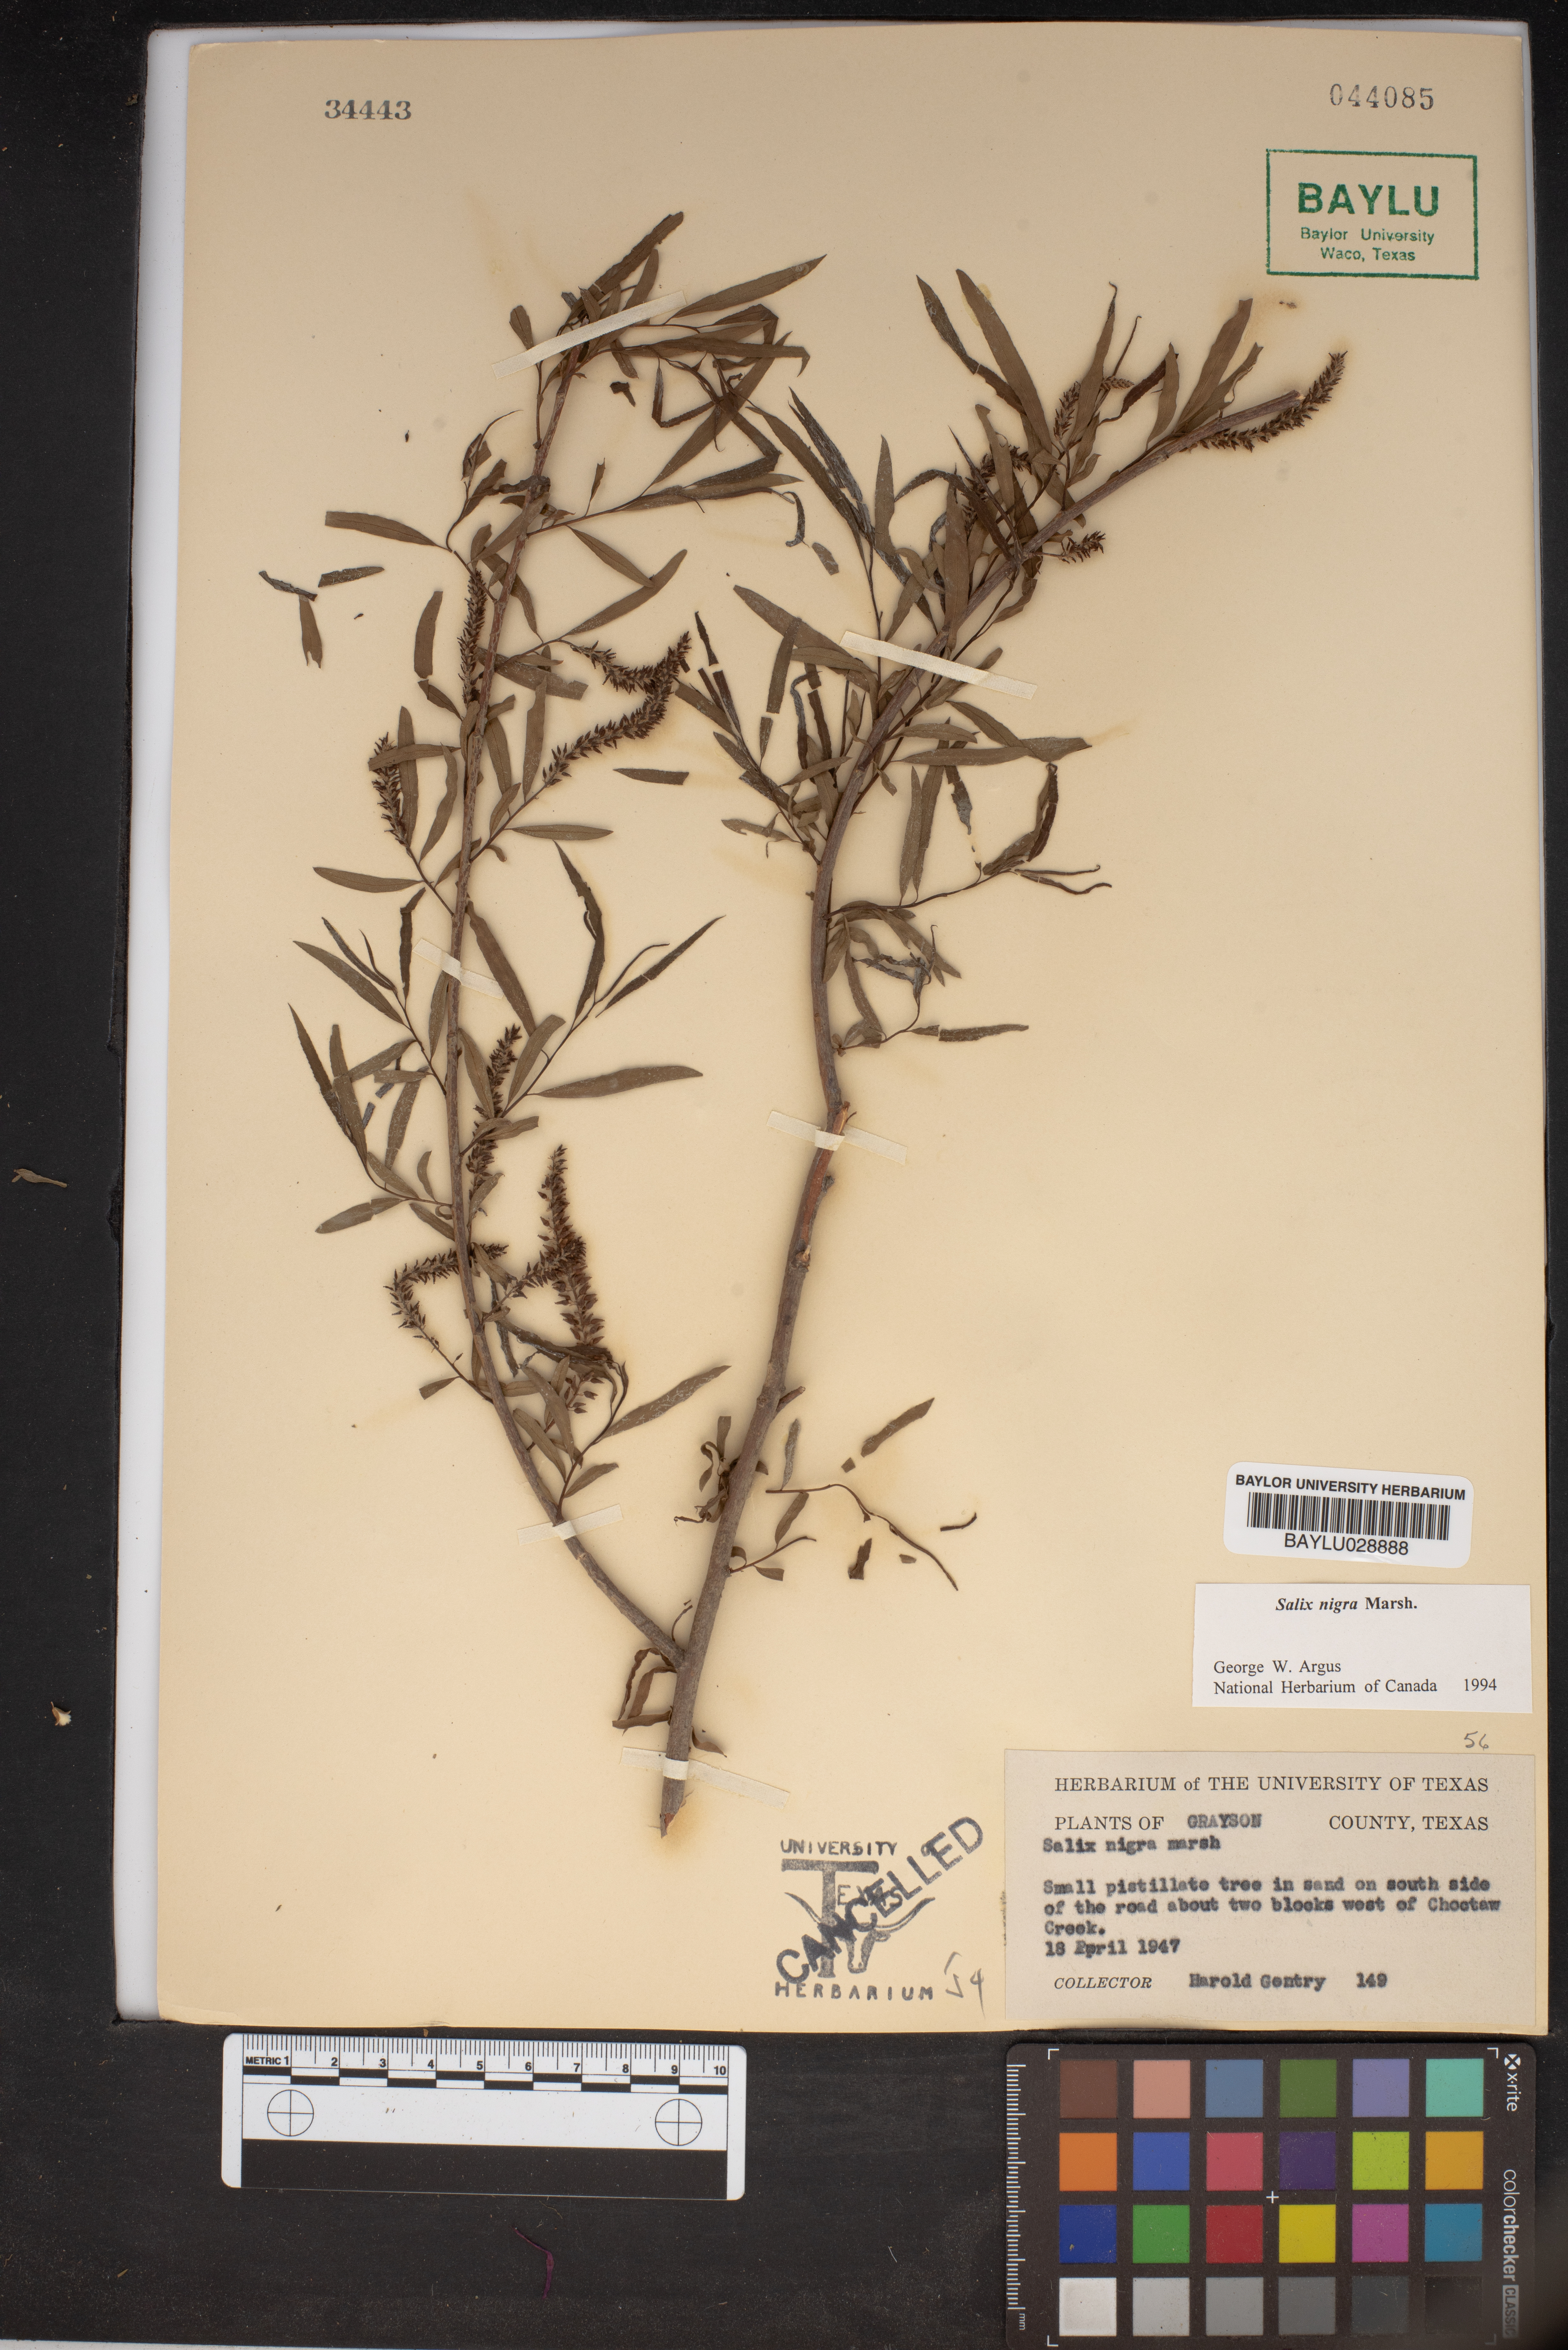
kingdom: Plantae
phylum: Tracheophyta
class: Magnoliopsida
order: Malpighiales
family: Salicaceae
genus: Salix
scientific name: Salix nigra
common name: Black willow
